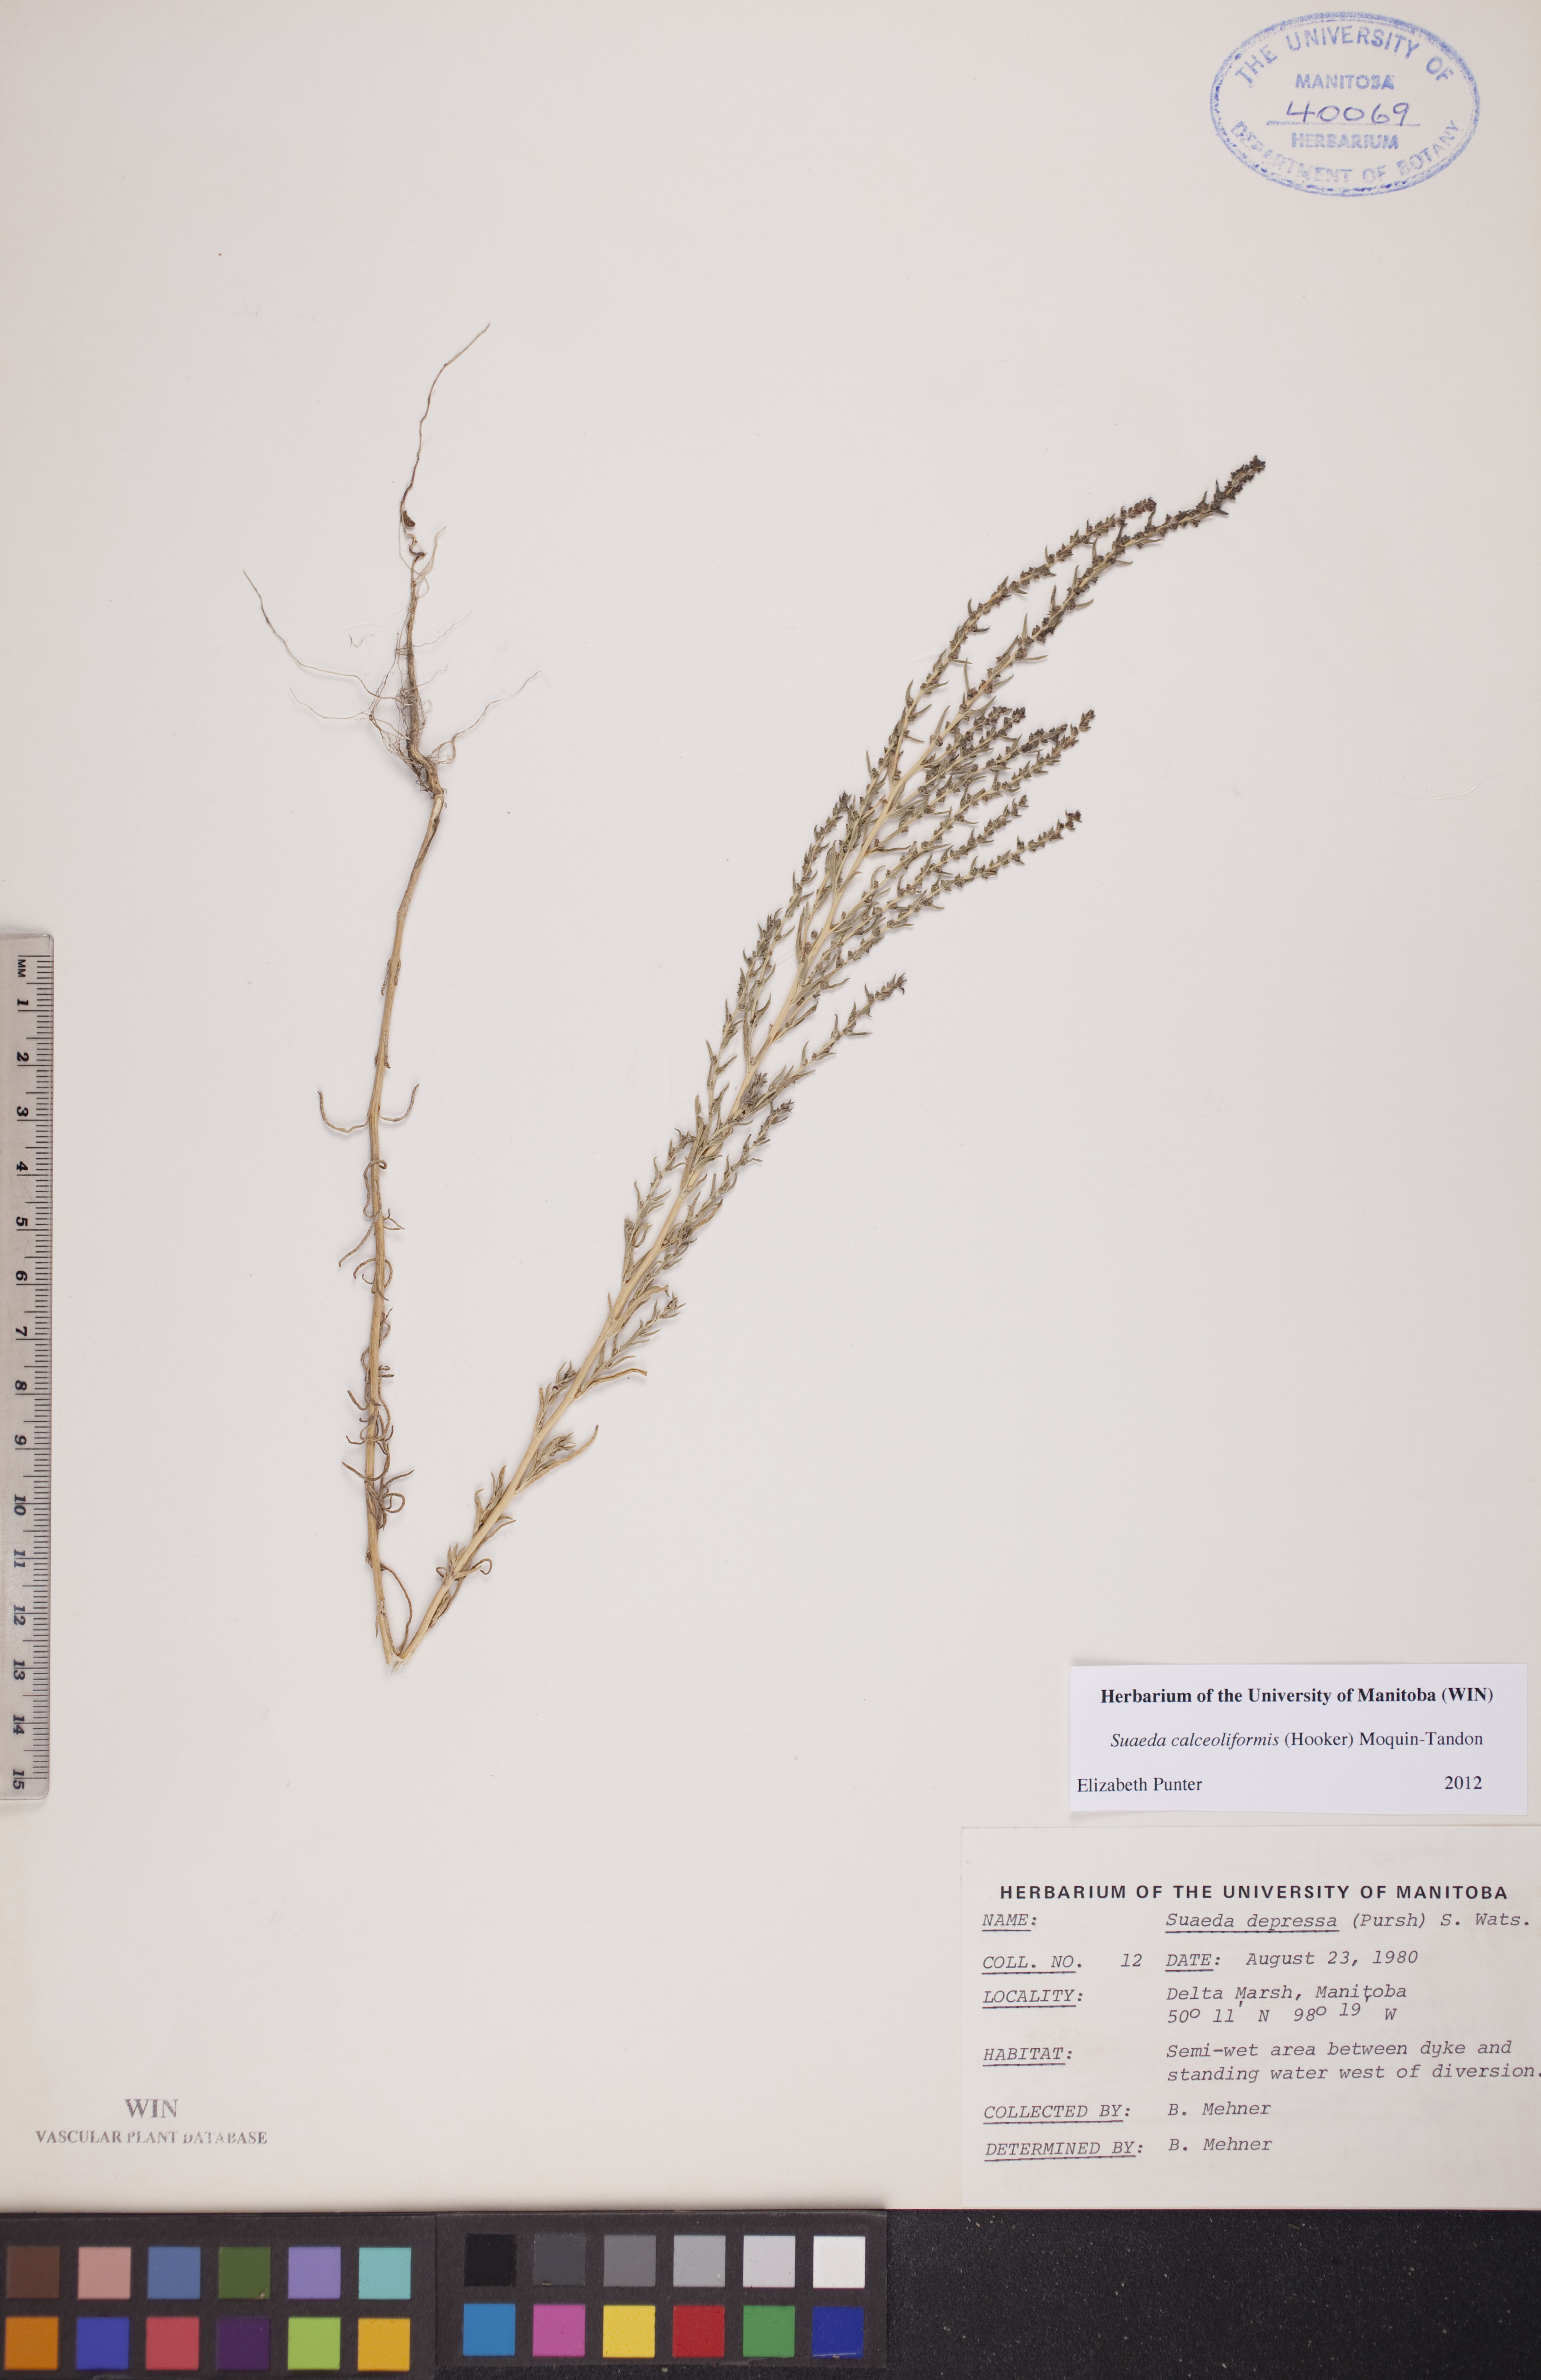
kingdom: Plantae
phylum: Tracheophyta
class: Magnoliopsida
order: Caryophyllales
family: Amaranthaceae
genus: Suaeda
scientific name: Suaeda calceoliformis
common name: Pursh's seepweed
